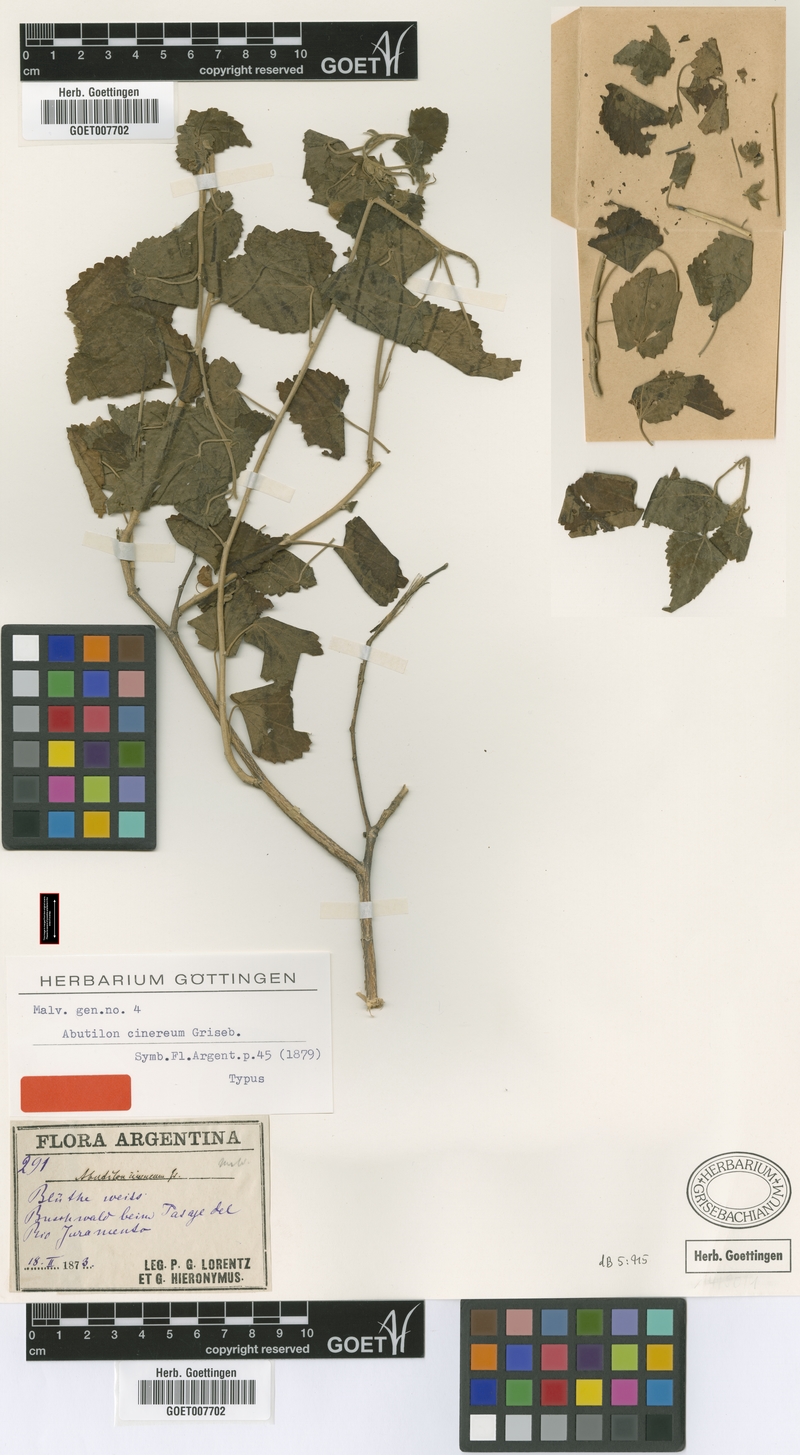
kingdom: Plantae
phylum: Tracheophyta
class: Magnoliopsida
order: Malvales
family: Malvaceae
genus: Pseudabutilon
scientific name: Pseudabutilon cinereum
